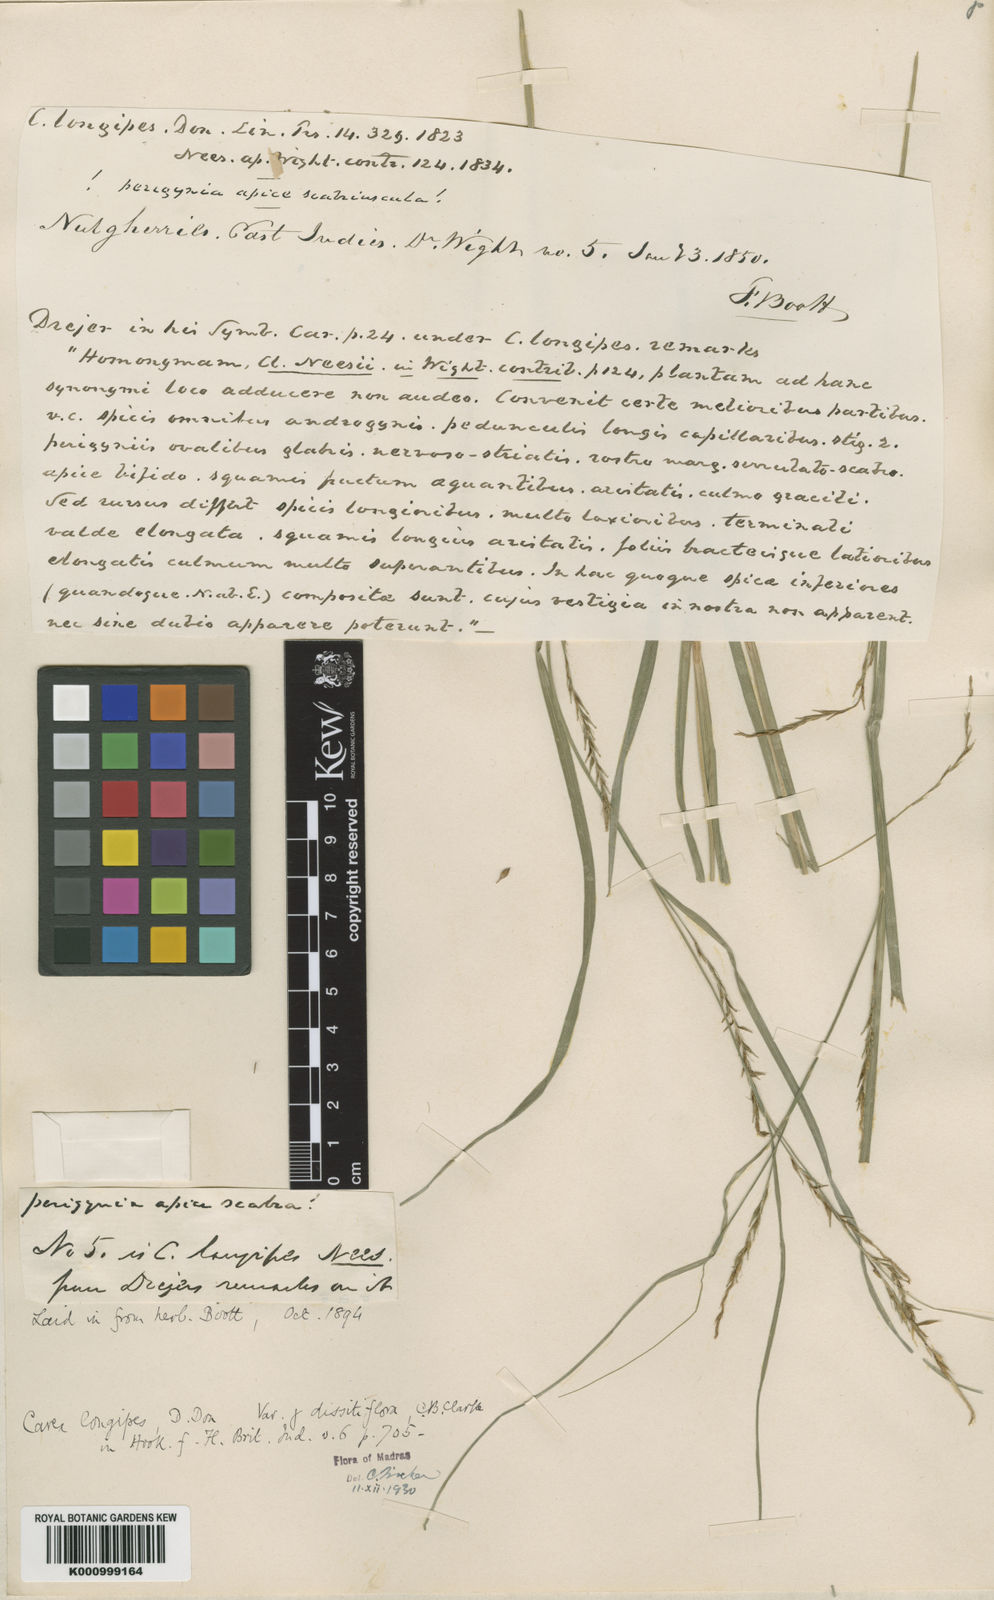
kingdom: Plantae
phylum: Tracheophyta
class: Liliopsida
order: Poales
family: Cyperaceae
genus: Carex
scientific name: Carex longipes
